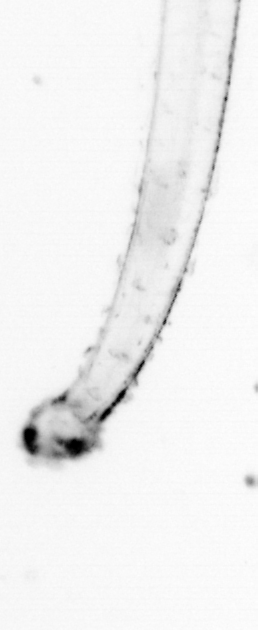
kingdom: Animalia
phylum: Chaetognatha
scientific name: Chaetognatha
